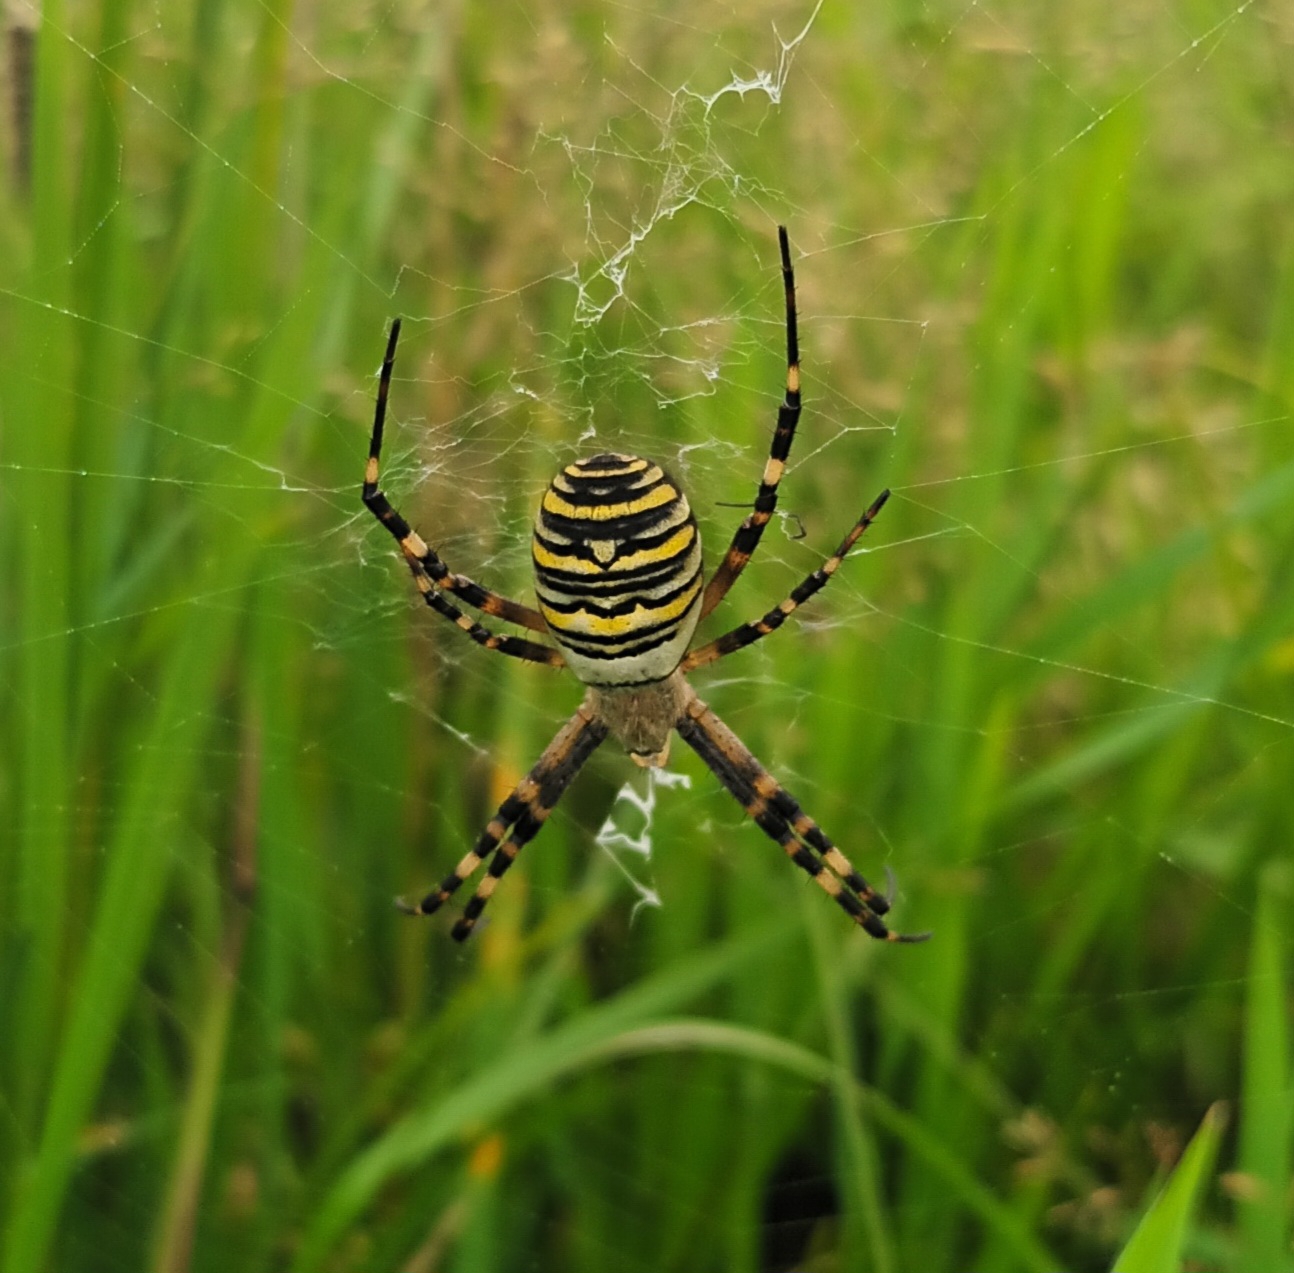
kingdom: Animalia
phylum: Arthropoda
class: Arachnida
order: Araneae
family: Araneidae
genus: Argiope
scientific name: Argiope bruennichi
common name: Hvepseedderkop
